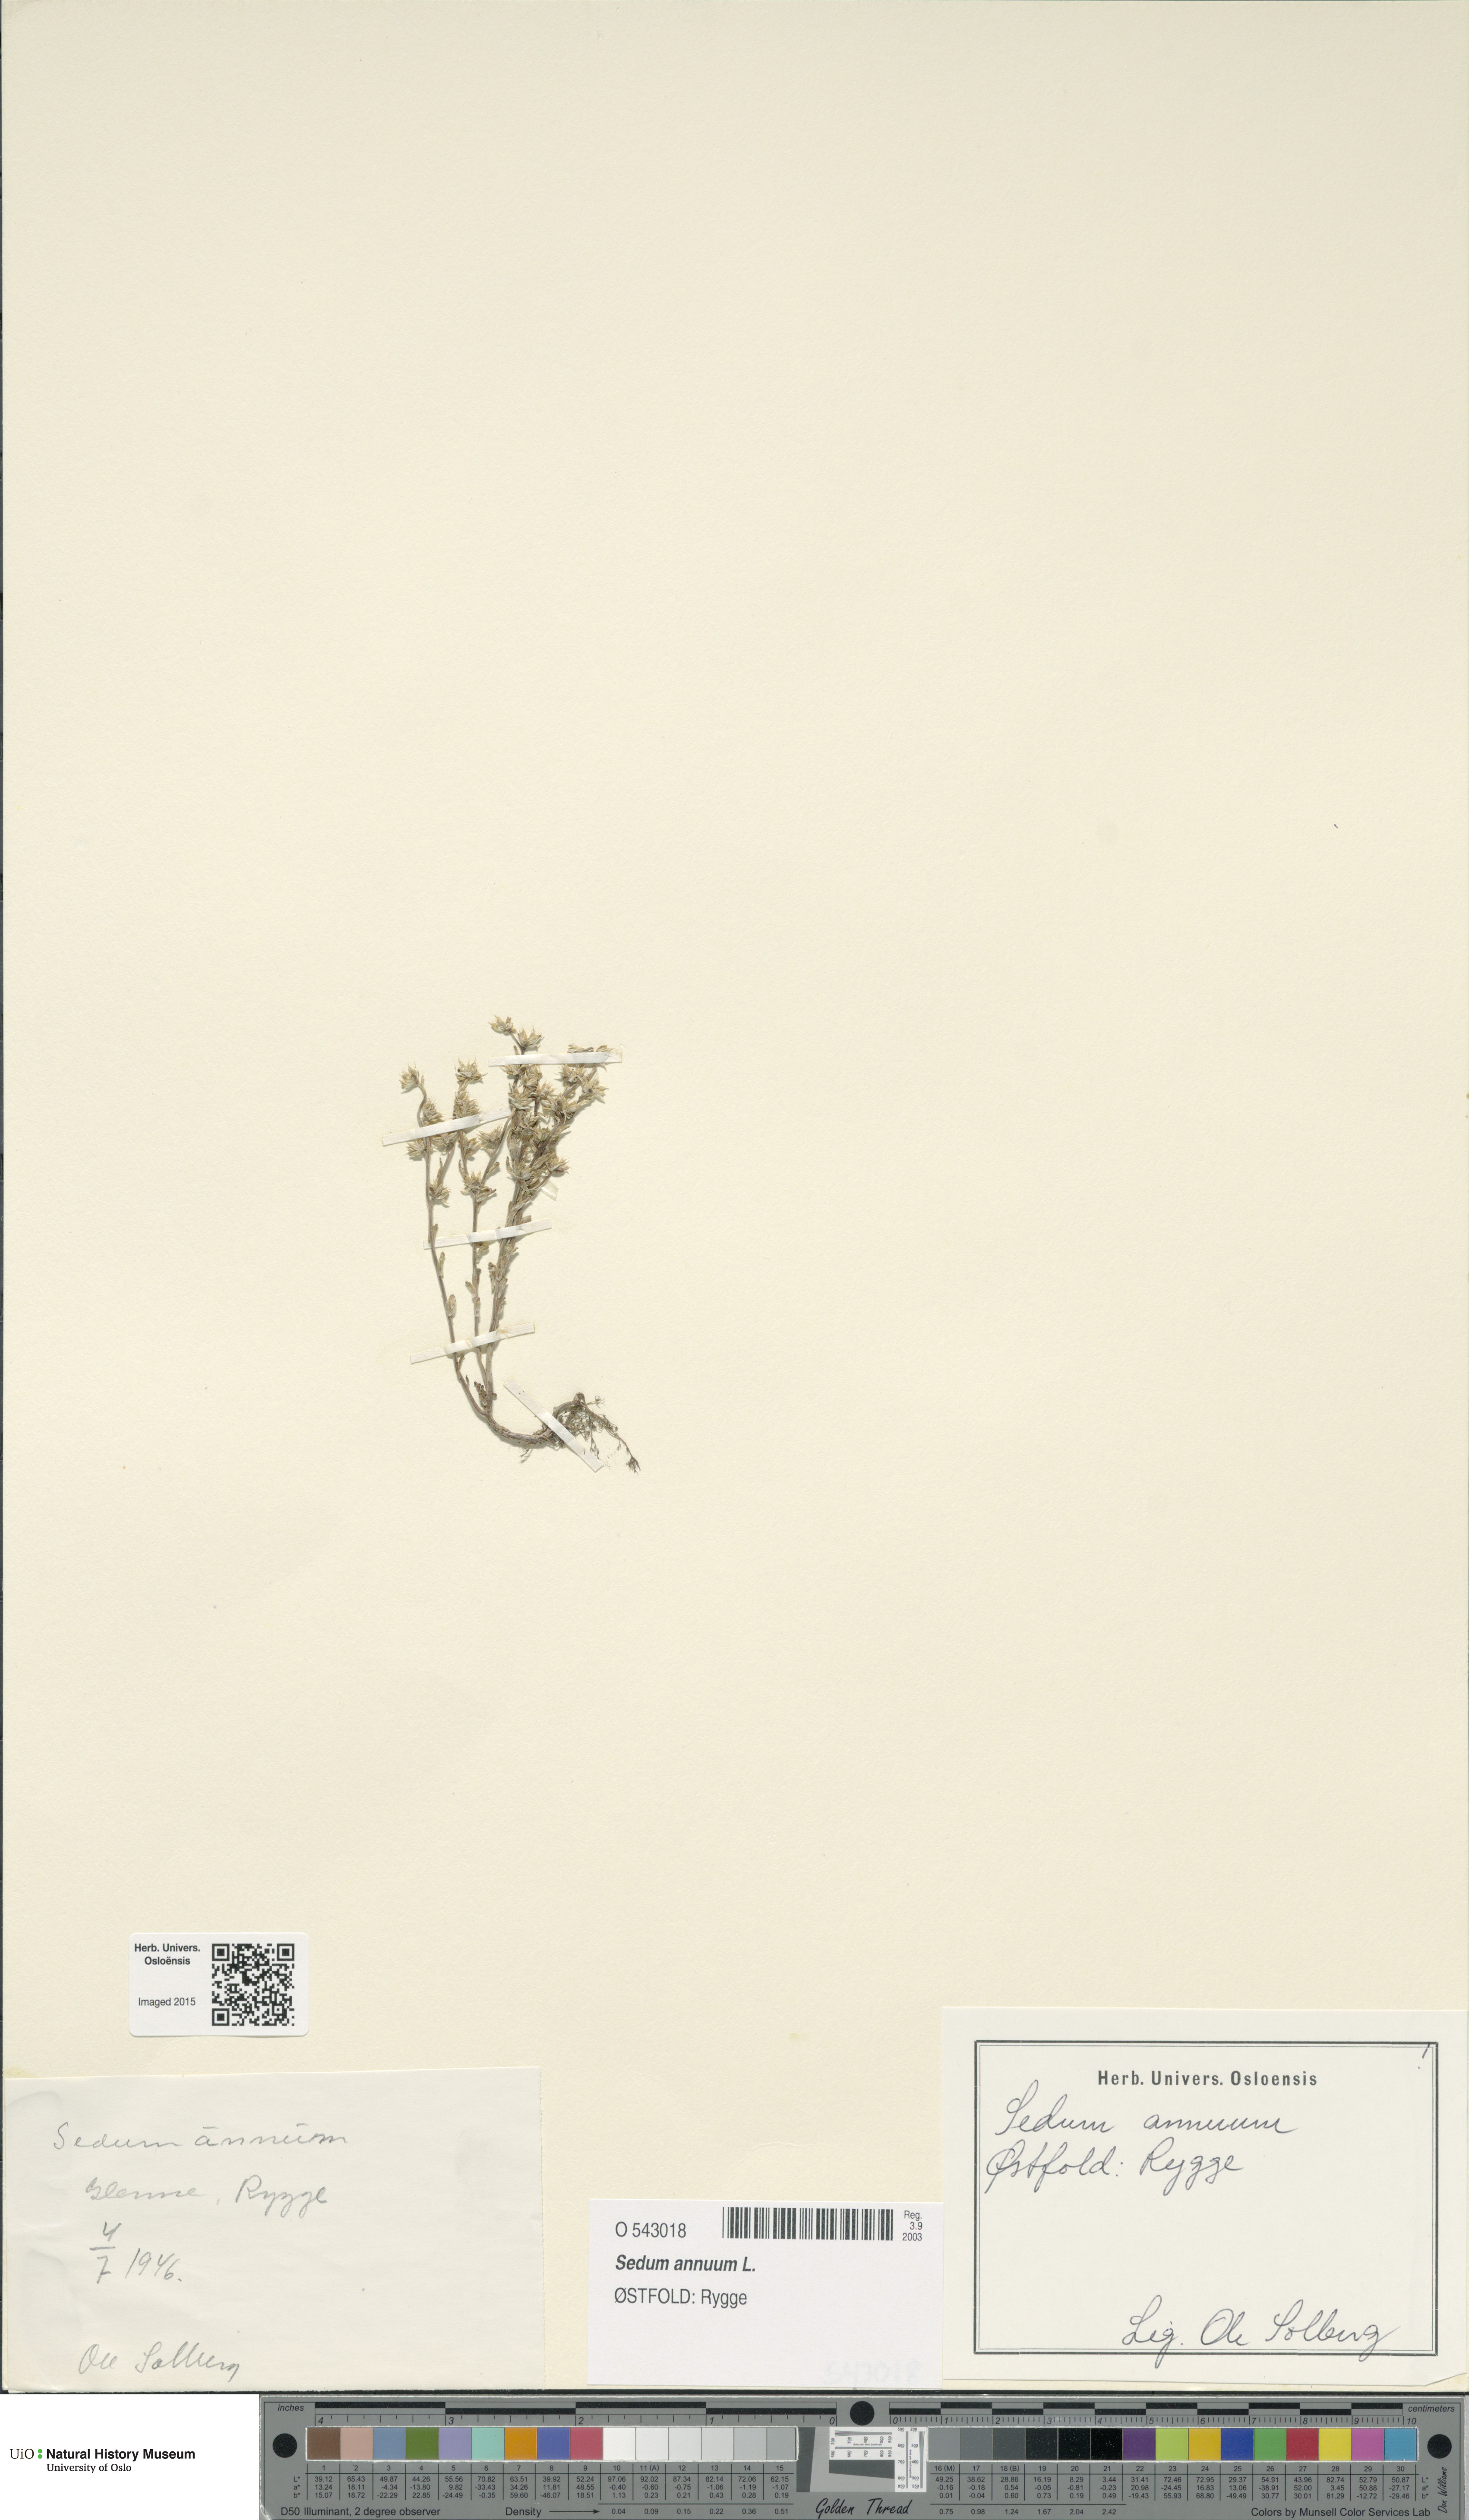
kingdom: Plantae
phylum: Tracheophyta
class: Magnoliopsida
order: Saxifragales
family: Crassulaceae
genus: Sedum
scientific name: Sedum annuum
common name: Annual stonecrop
